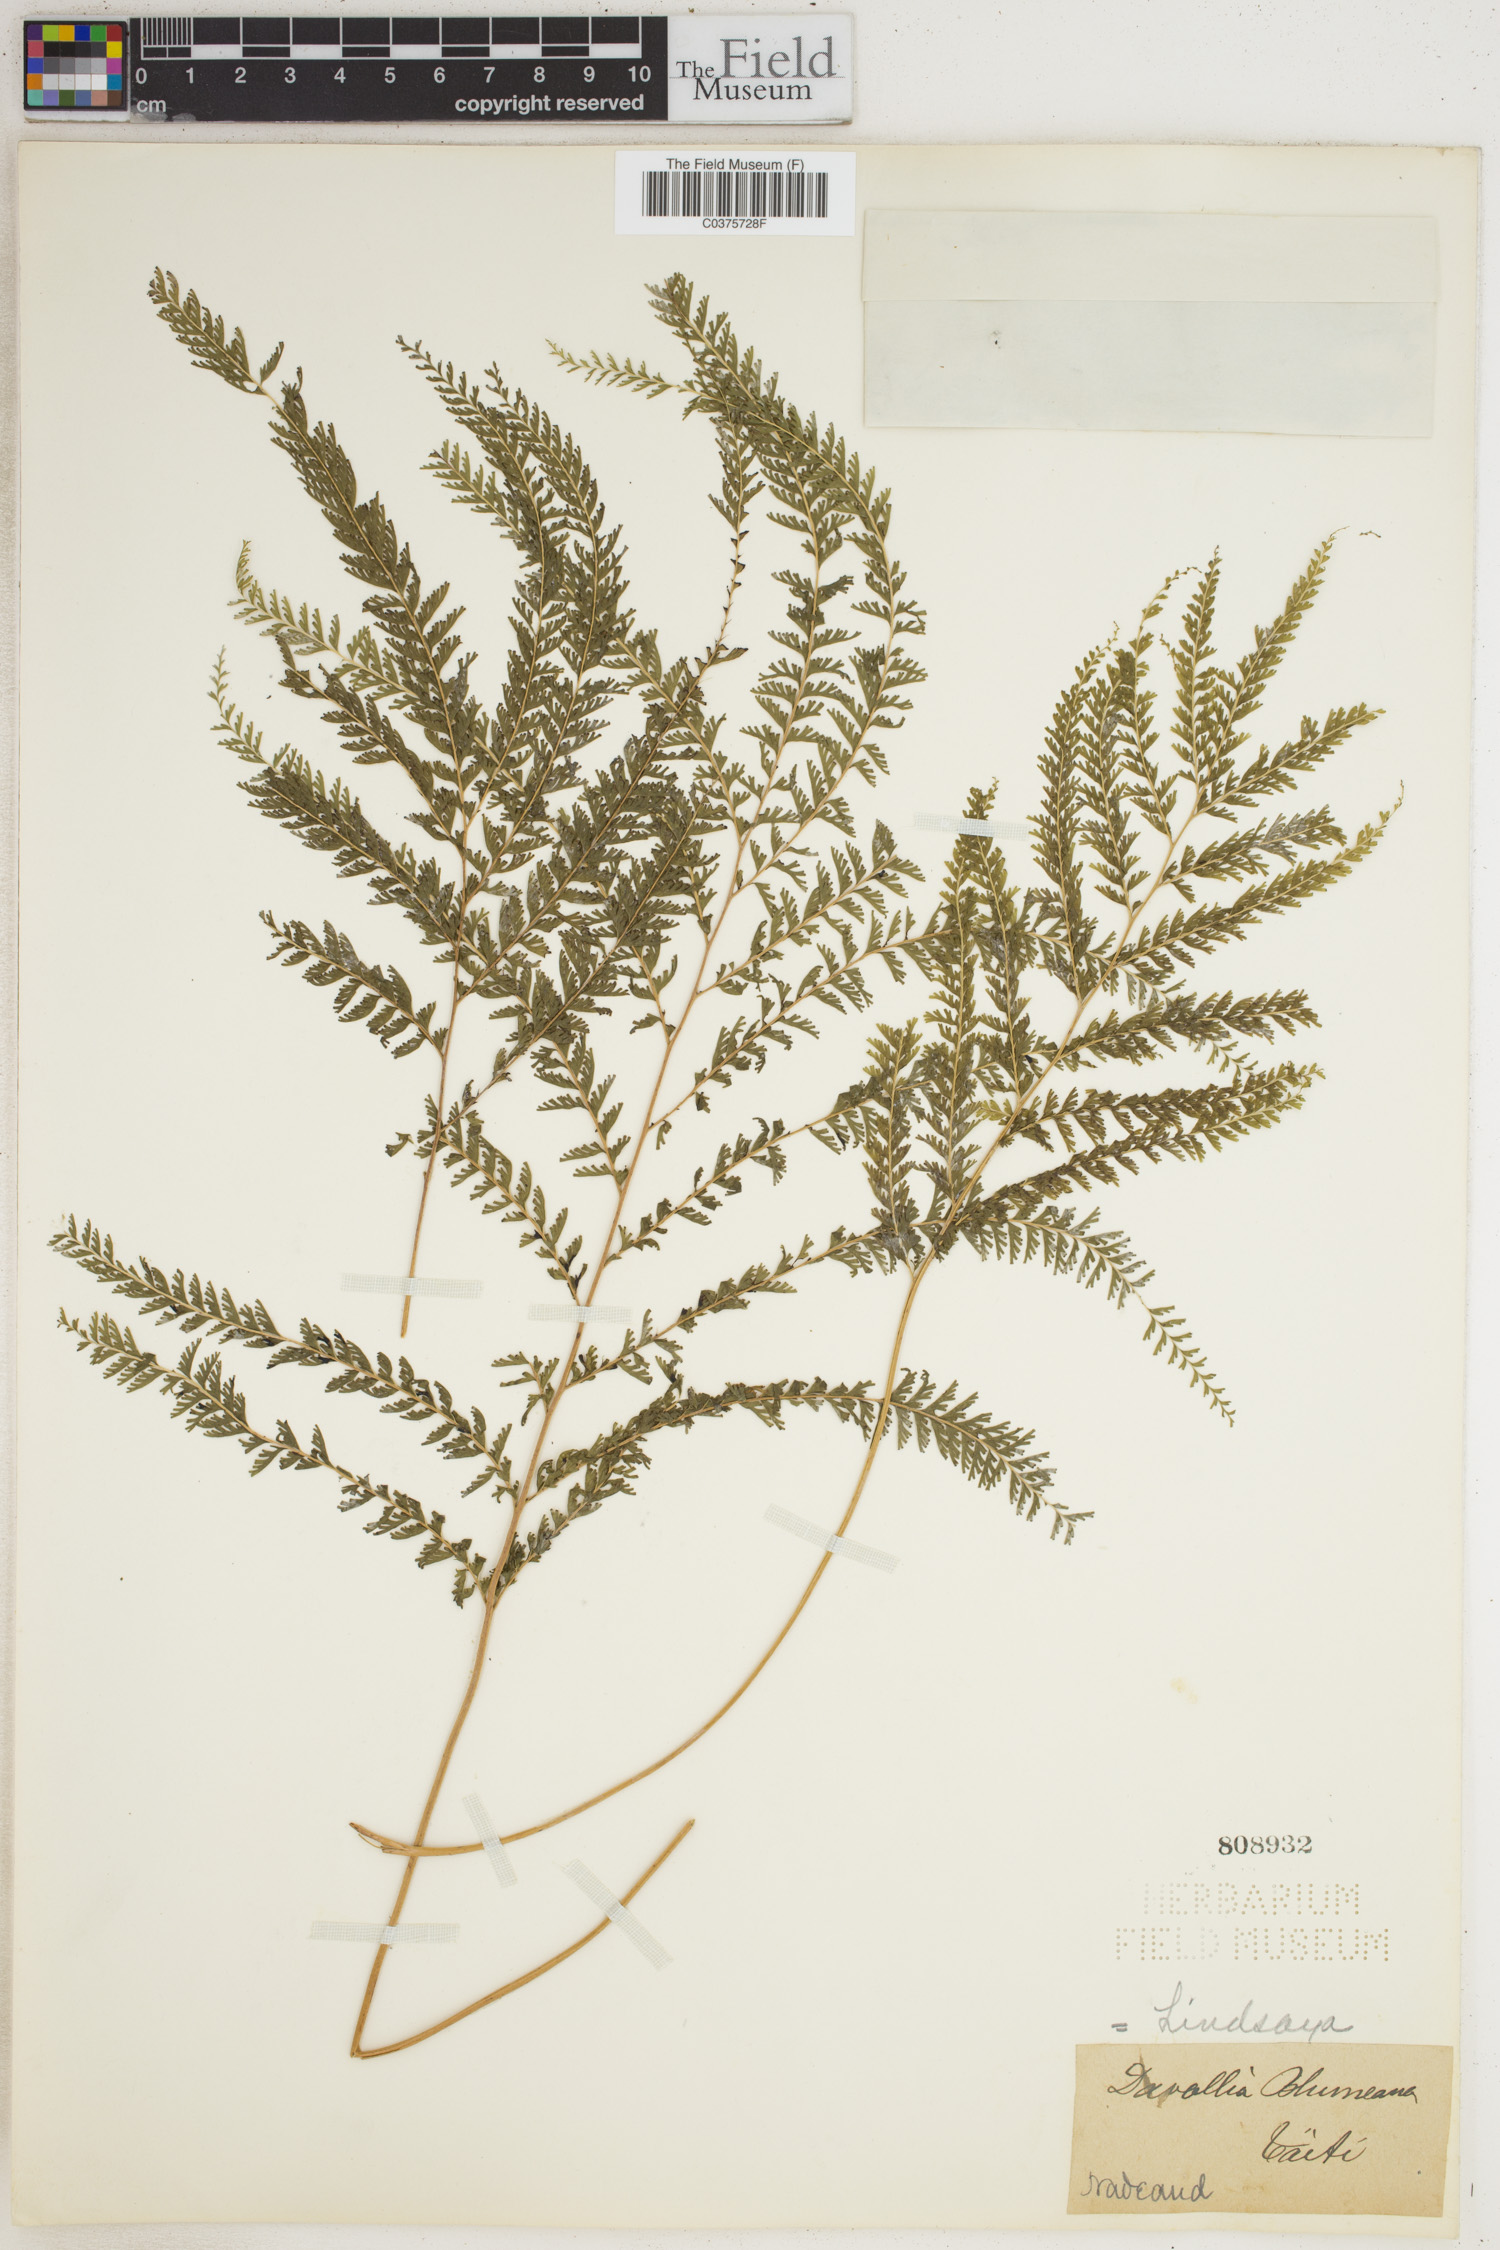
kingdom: Plantae
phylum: Tracheophyta
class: Polypodiopsida
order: Polypodiales
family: Lindsaeaceae
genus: Lindsaea
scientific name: Lindsaea tenuifolia
